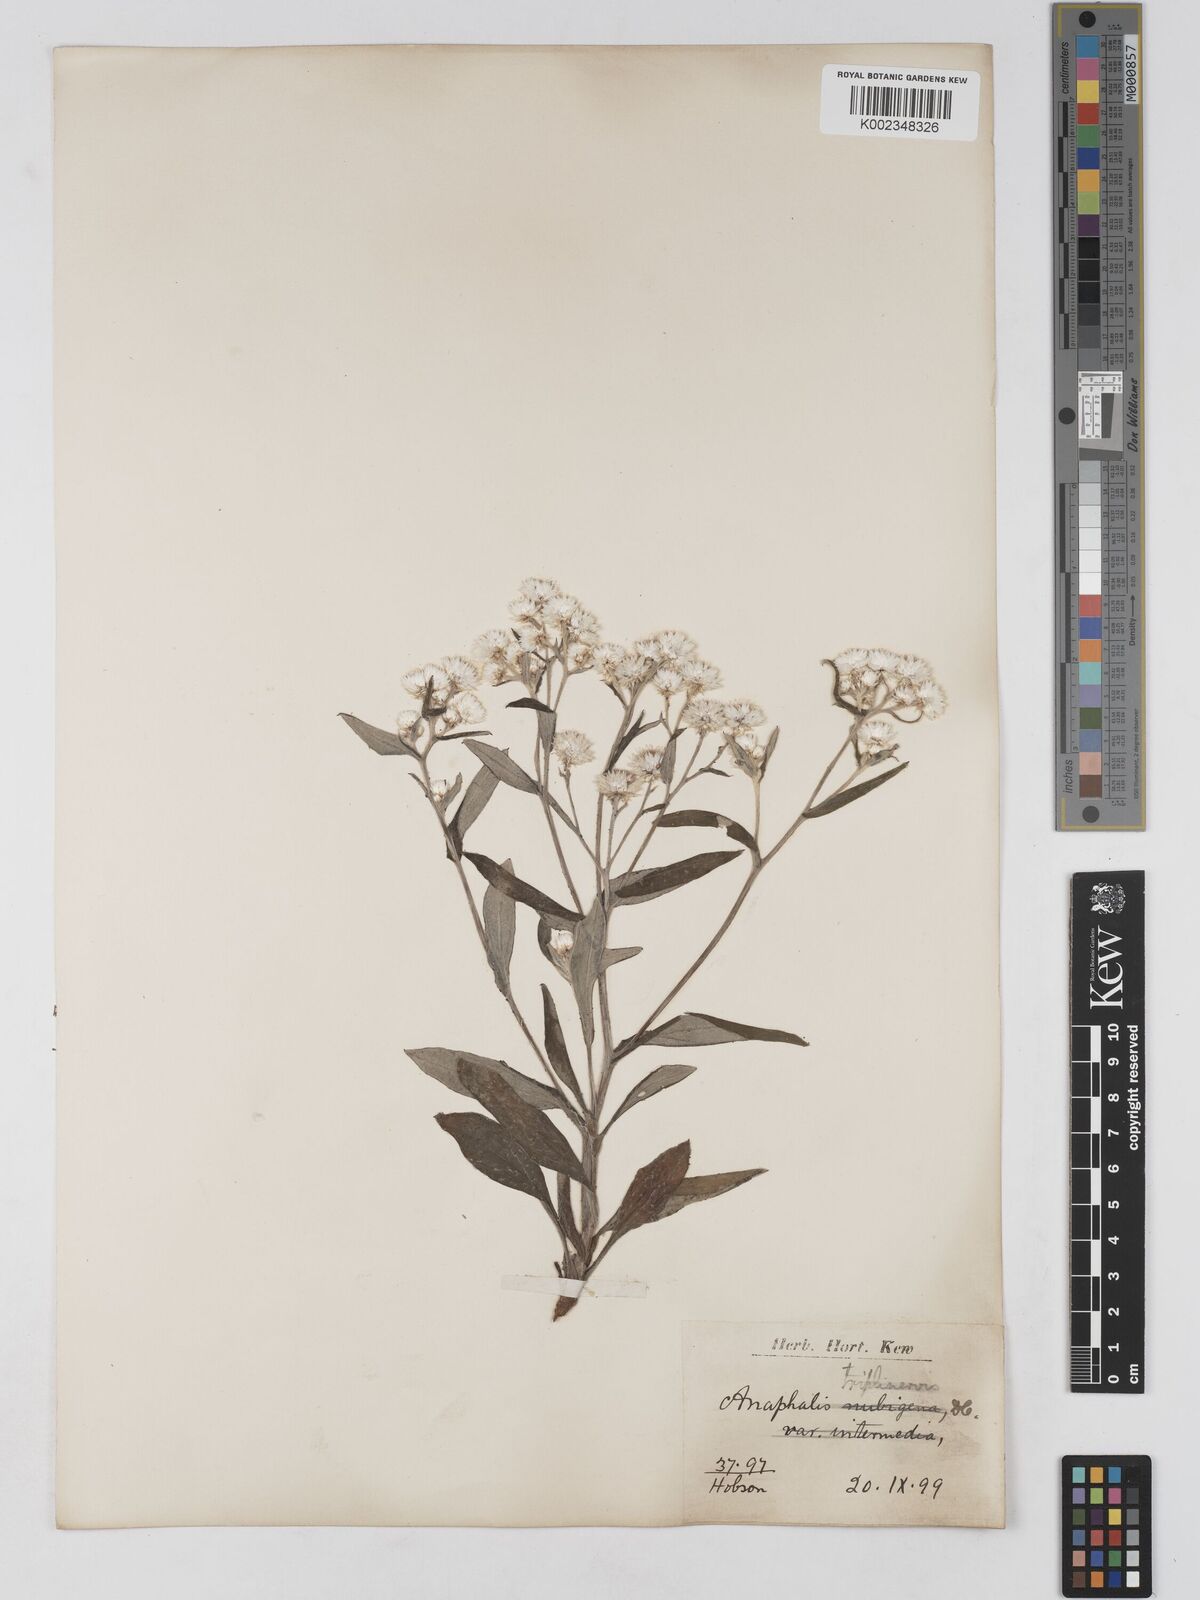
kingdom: Plantae
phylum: Tracheophyta
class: Magnoliopsida
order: Asterales
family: Asteraceae
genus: Anaphalis
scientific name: Anaphalis triplinervis
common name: Pearly everlasting
